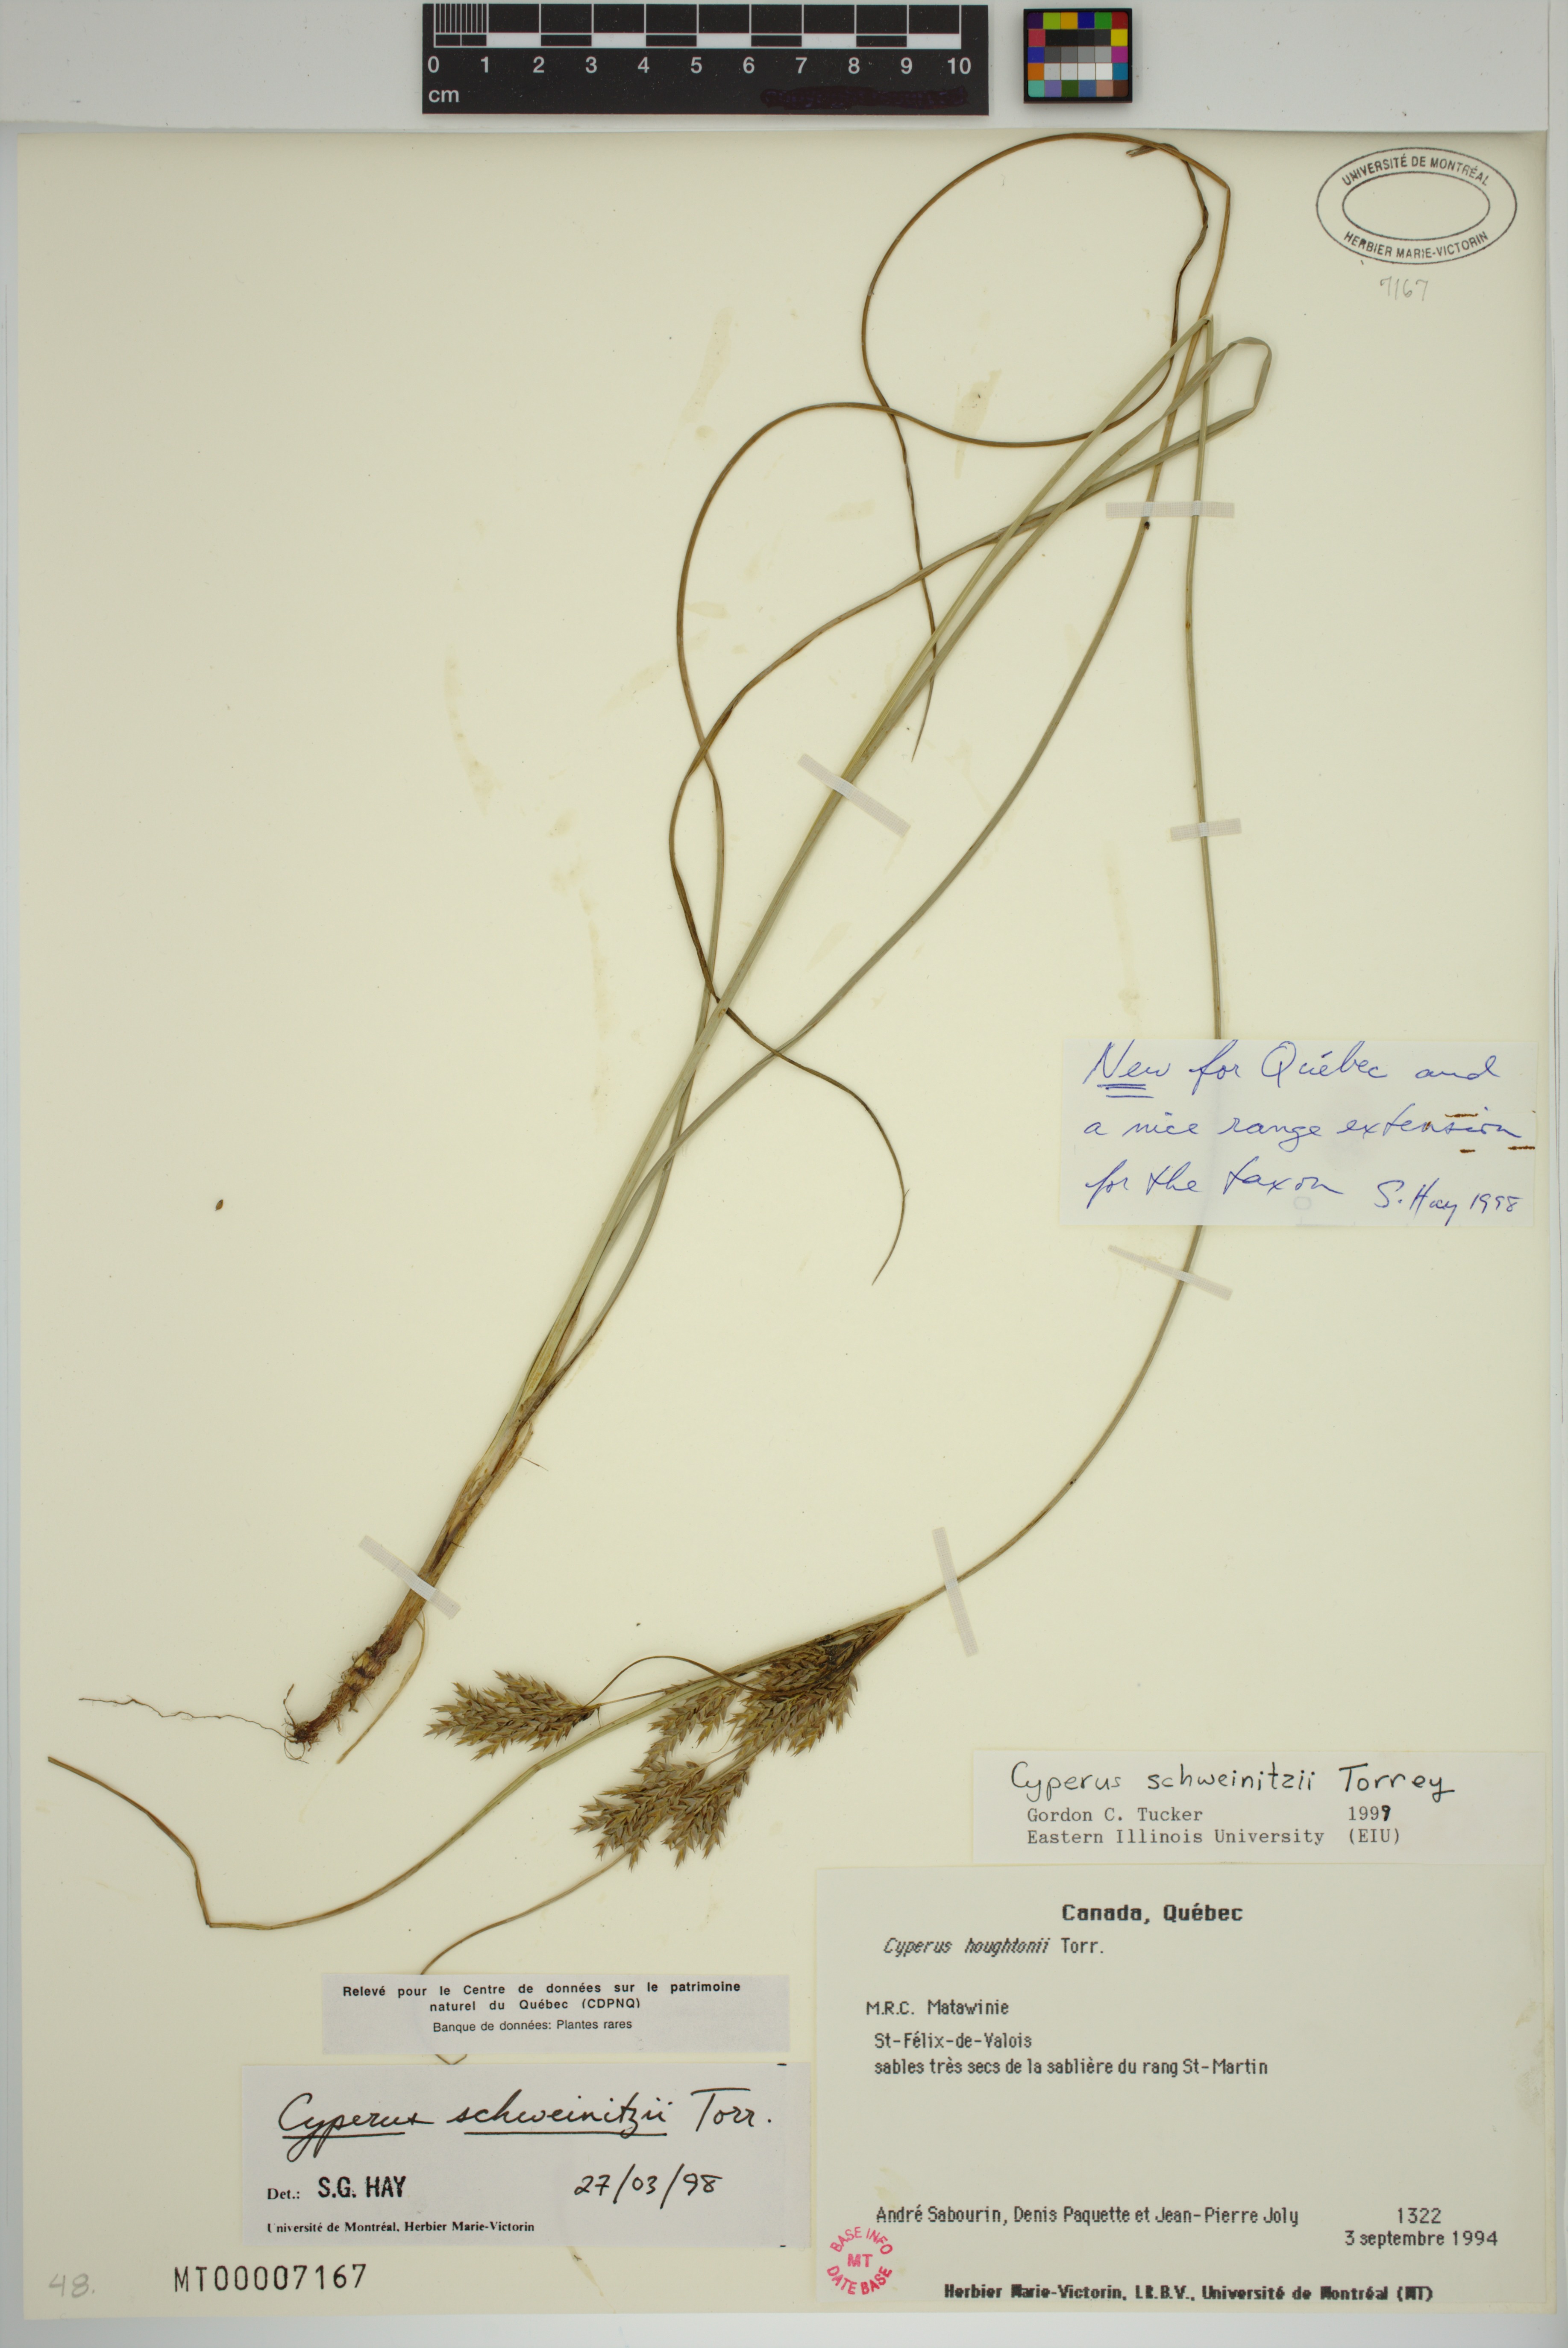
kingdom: Plantae
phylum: Tracheophyta
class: Liliopsida
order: Poales
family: Cyperaceae
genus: Cyperus
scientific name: Cyperus schweinitzii
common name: Schweinitz's cyperus
